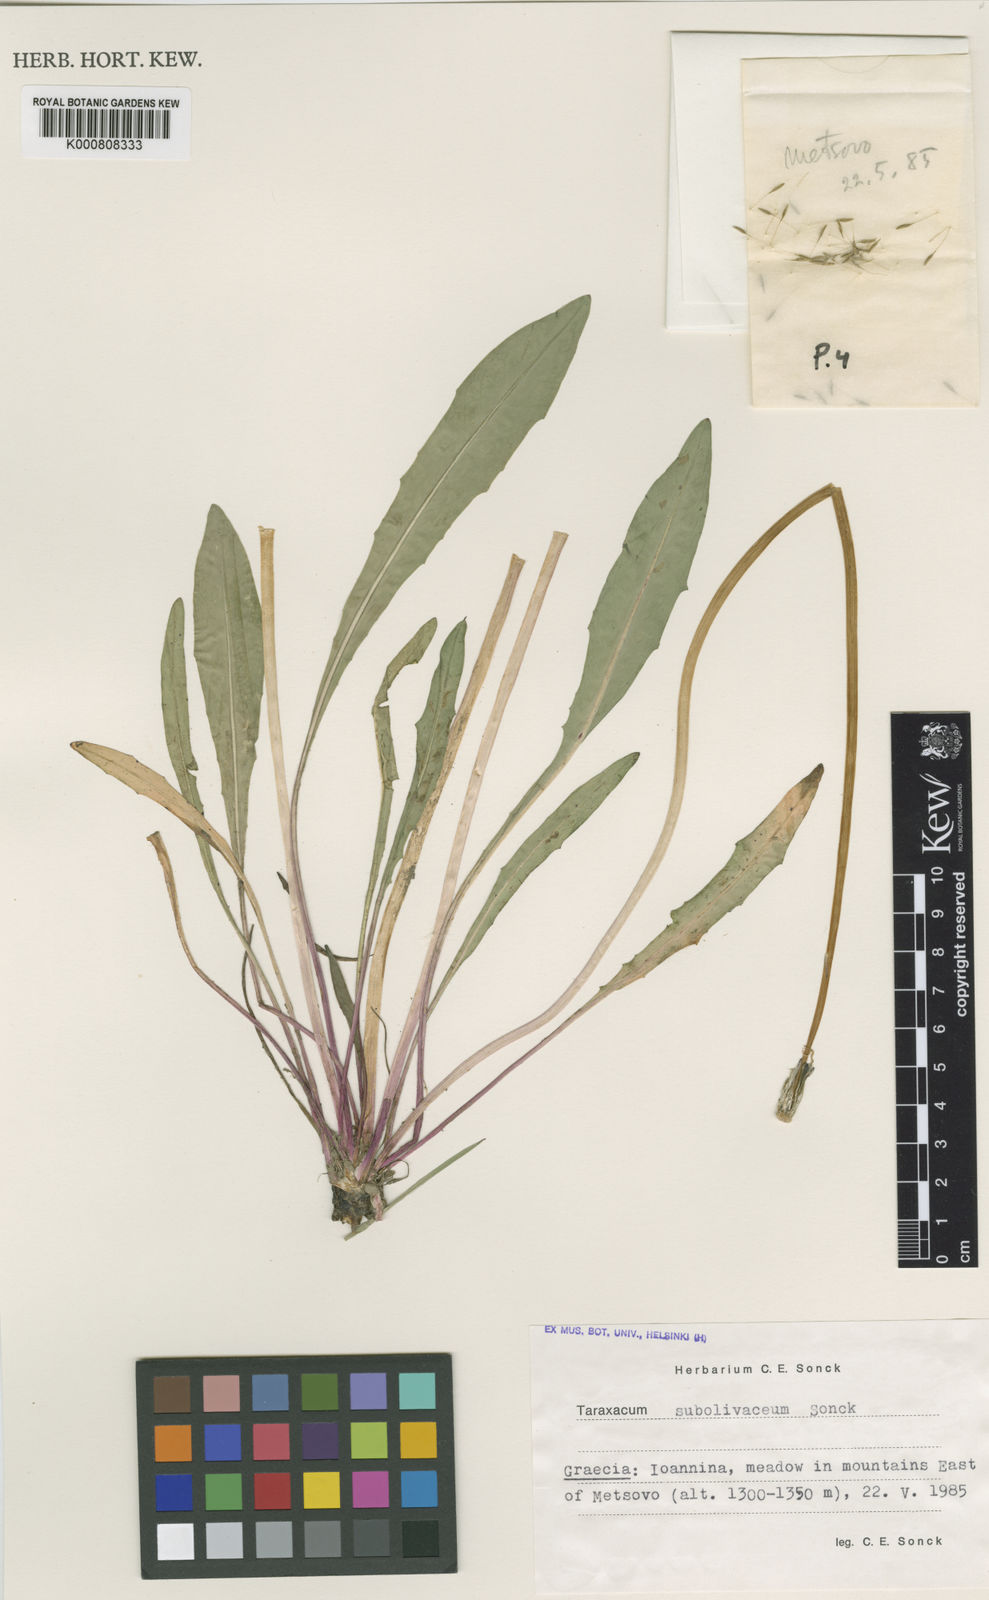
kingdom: Plantae
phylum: Tracheophyta
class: Magnoliopsida
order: Asterales
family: Asteraceae
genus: Taraxacum
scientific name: Taraxacum subolivaceum
